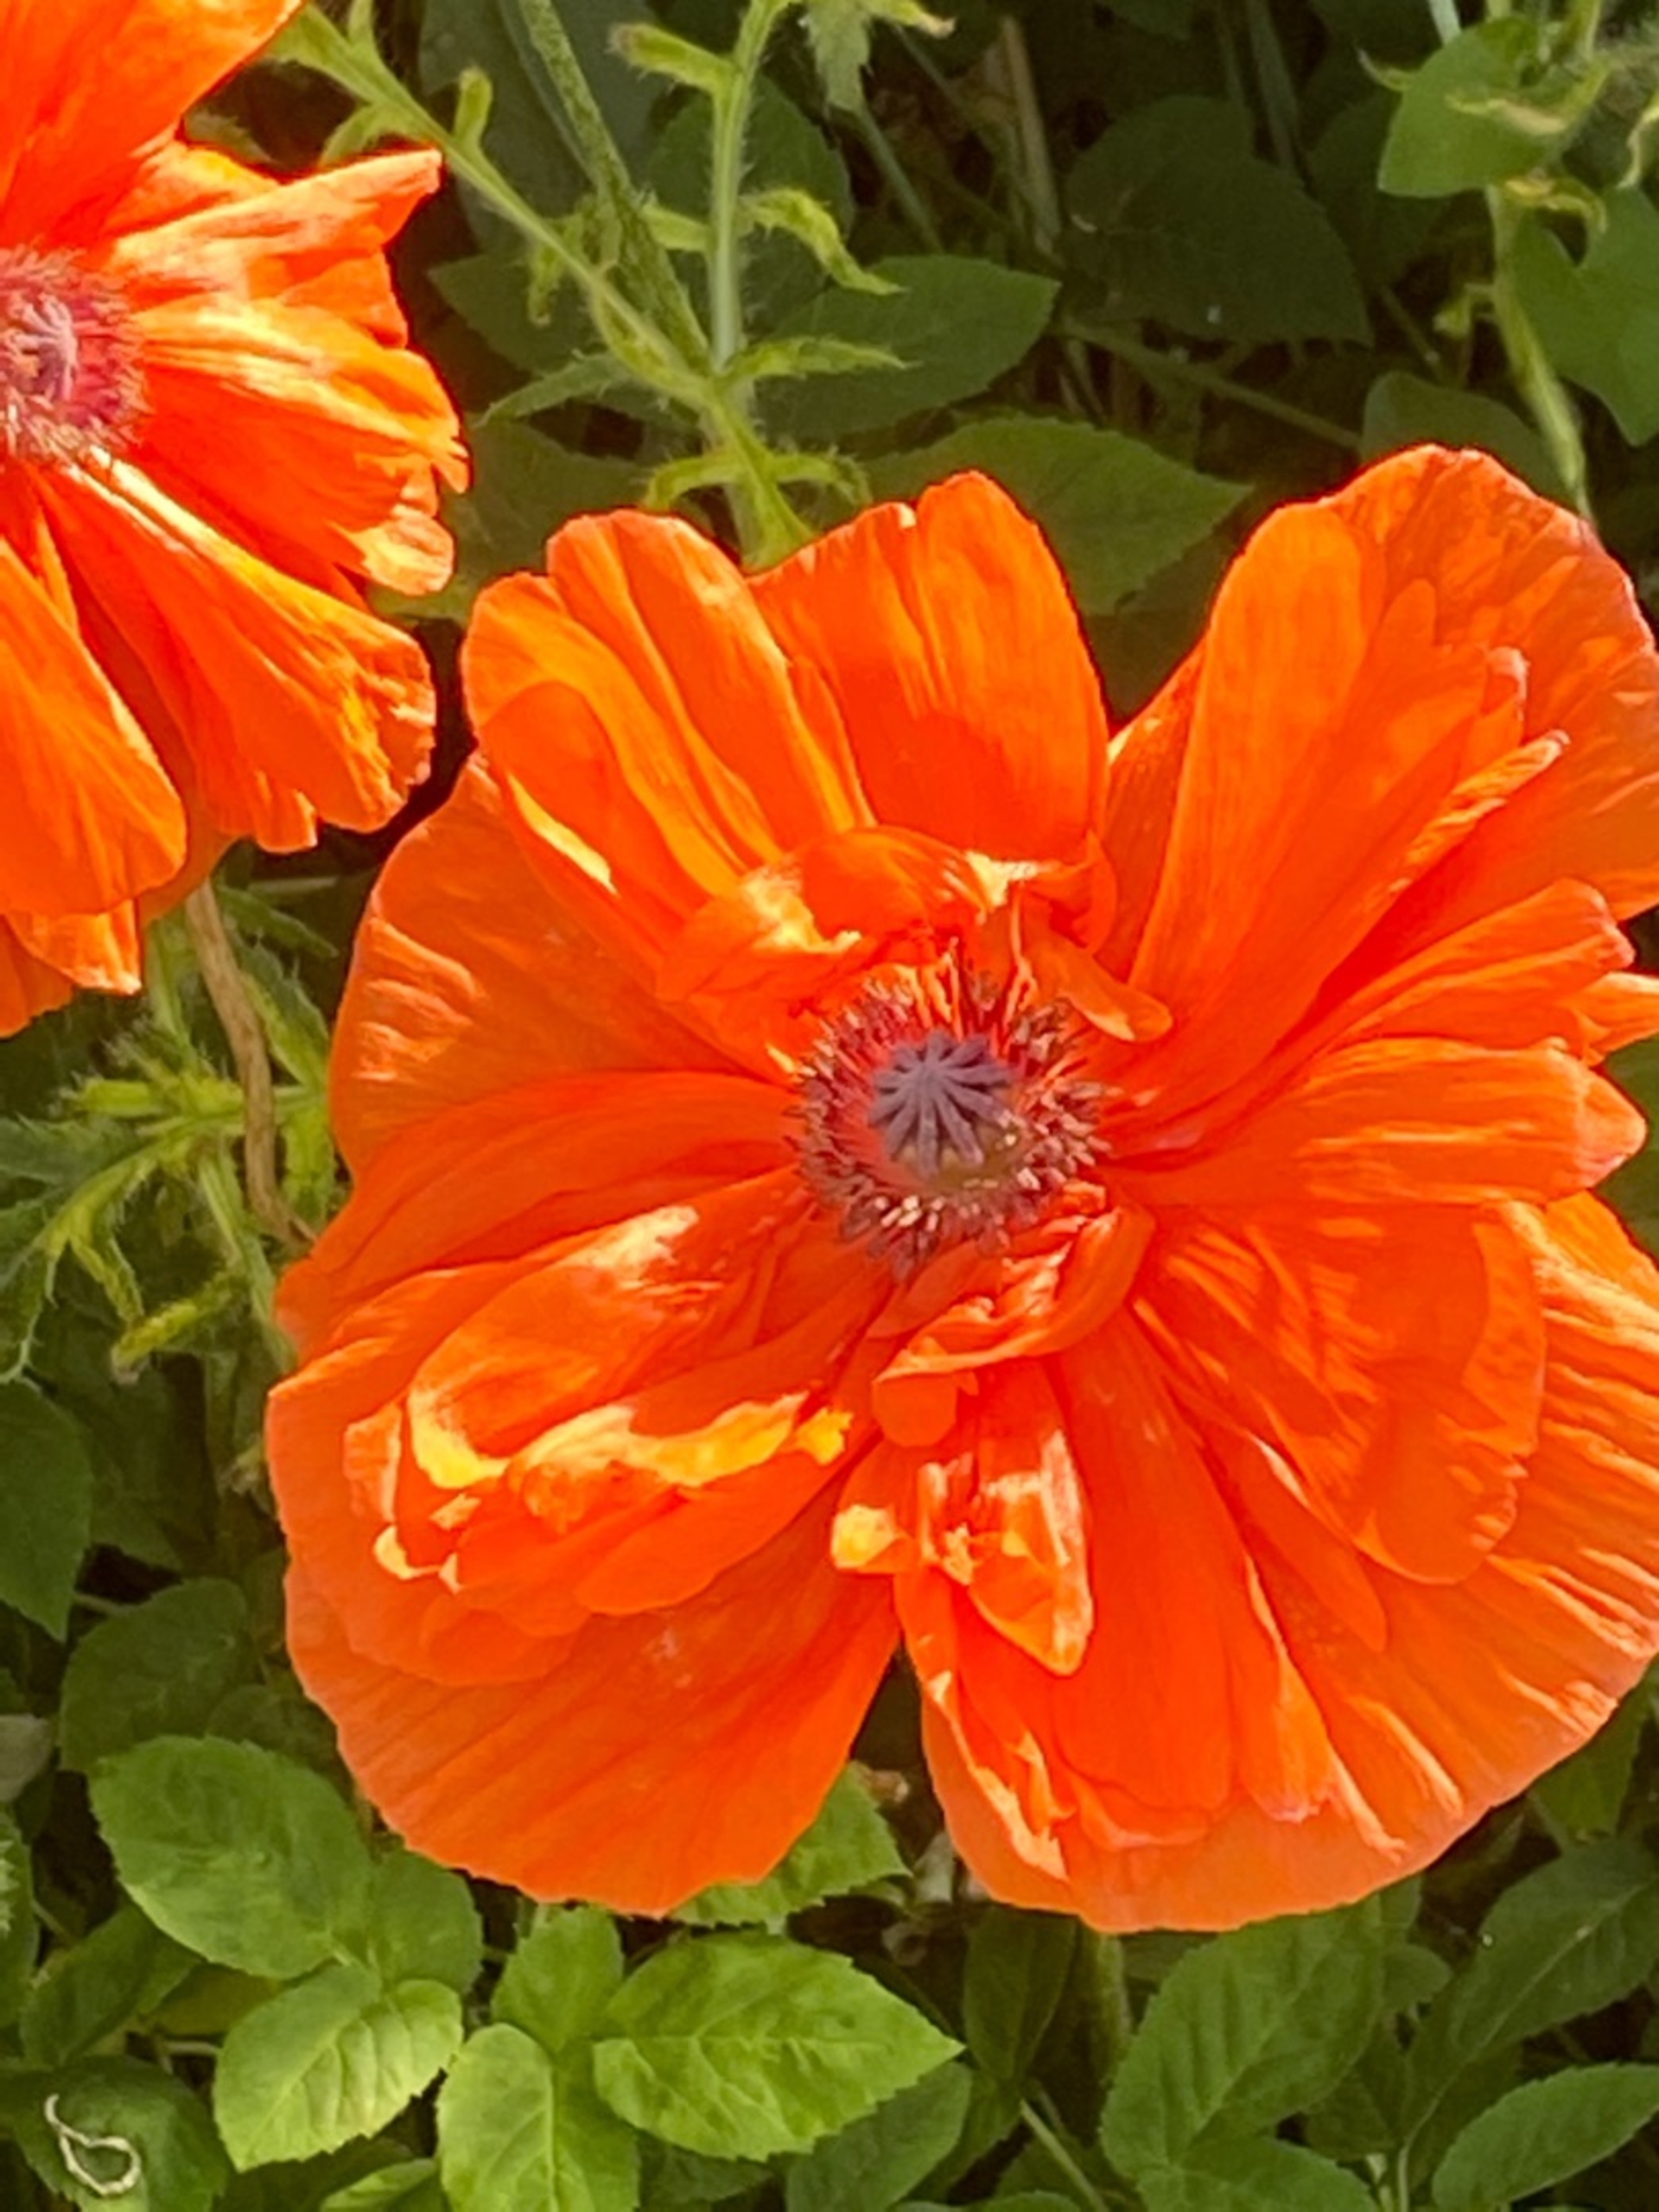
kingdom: Plantae
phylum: Tracheophyta
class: Magnoliopsida
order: Ranunculales
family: Papaveraceae
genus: Papaver
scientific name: Papaver orientale
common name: Orientalsk valmue
